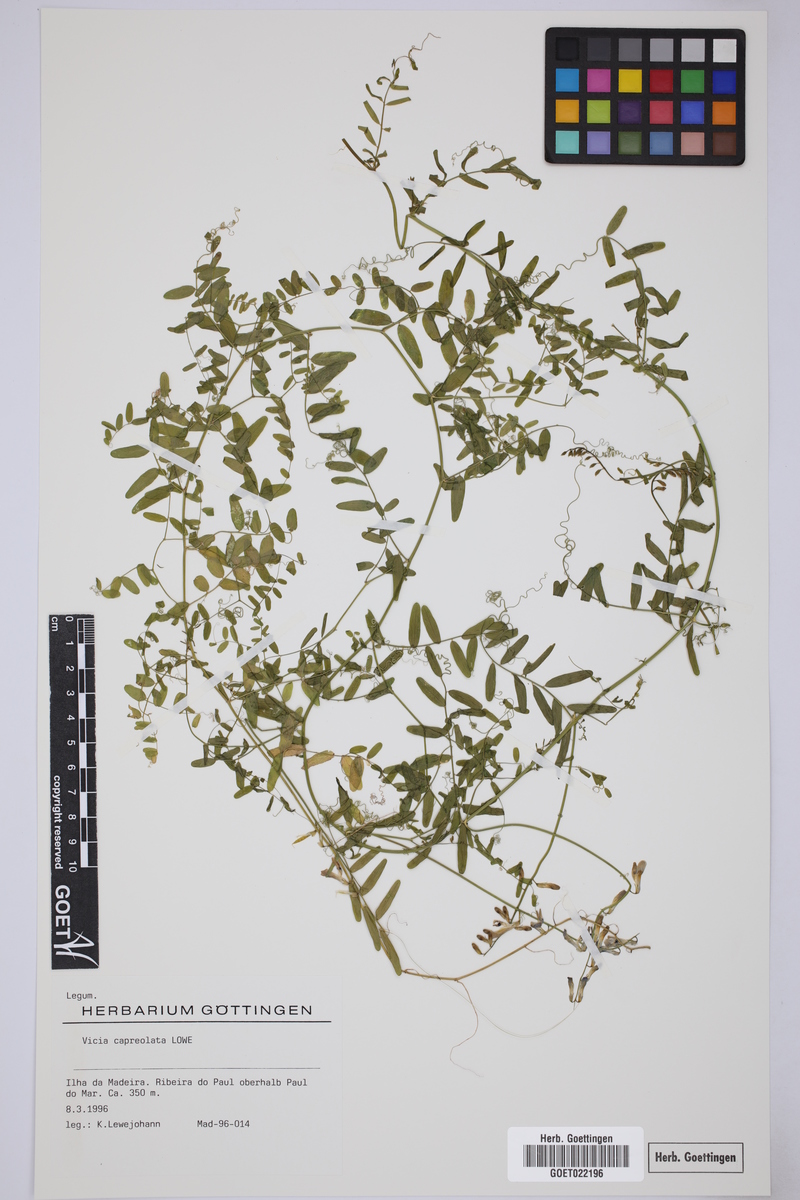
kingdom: Plantae
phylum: Tracheophyta
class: Magnoliopsida
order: Fabales
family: Fabaceae
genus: Vicia
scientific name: Vicia capreolata
